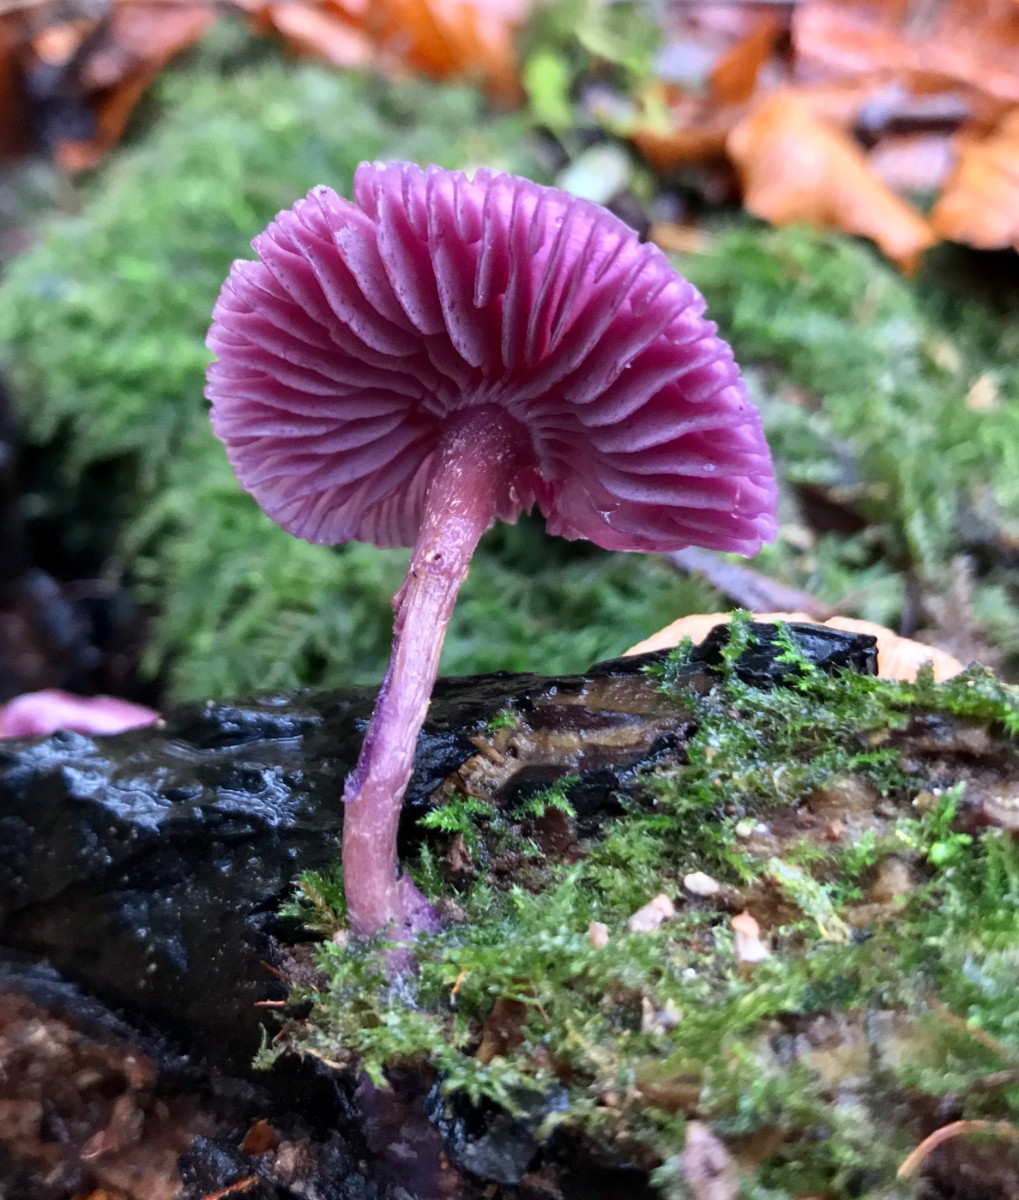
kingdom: Fungi
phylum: Basidiomycota
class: Agaricomycetes
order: Agaricales
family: Hydnangiaceae
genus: Laccaria
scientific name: Laccaria amethystina
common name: violet ametysthat
